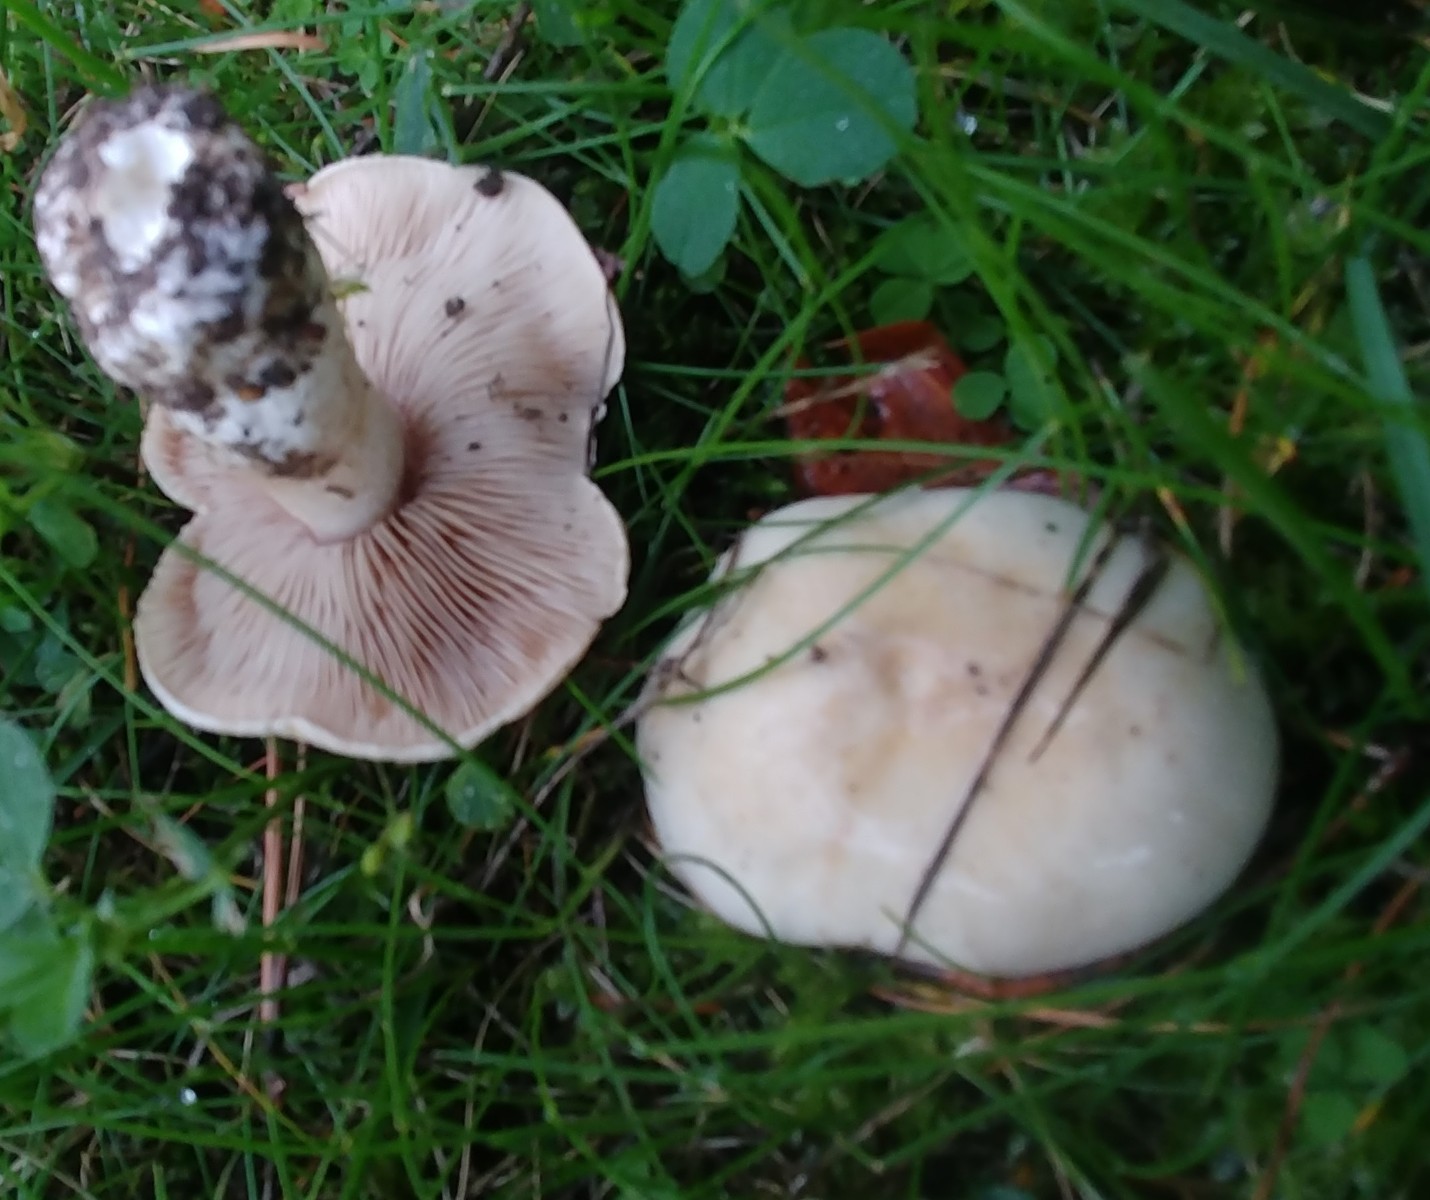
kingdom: Fungi
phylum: Basidiomycota
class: Agaricomycetes
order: Agaricales
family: Entolomataceae
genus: Clitopilus
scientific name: Clitopilus prunulus
